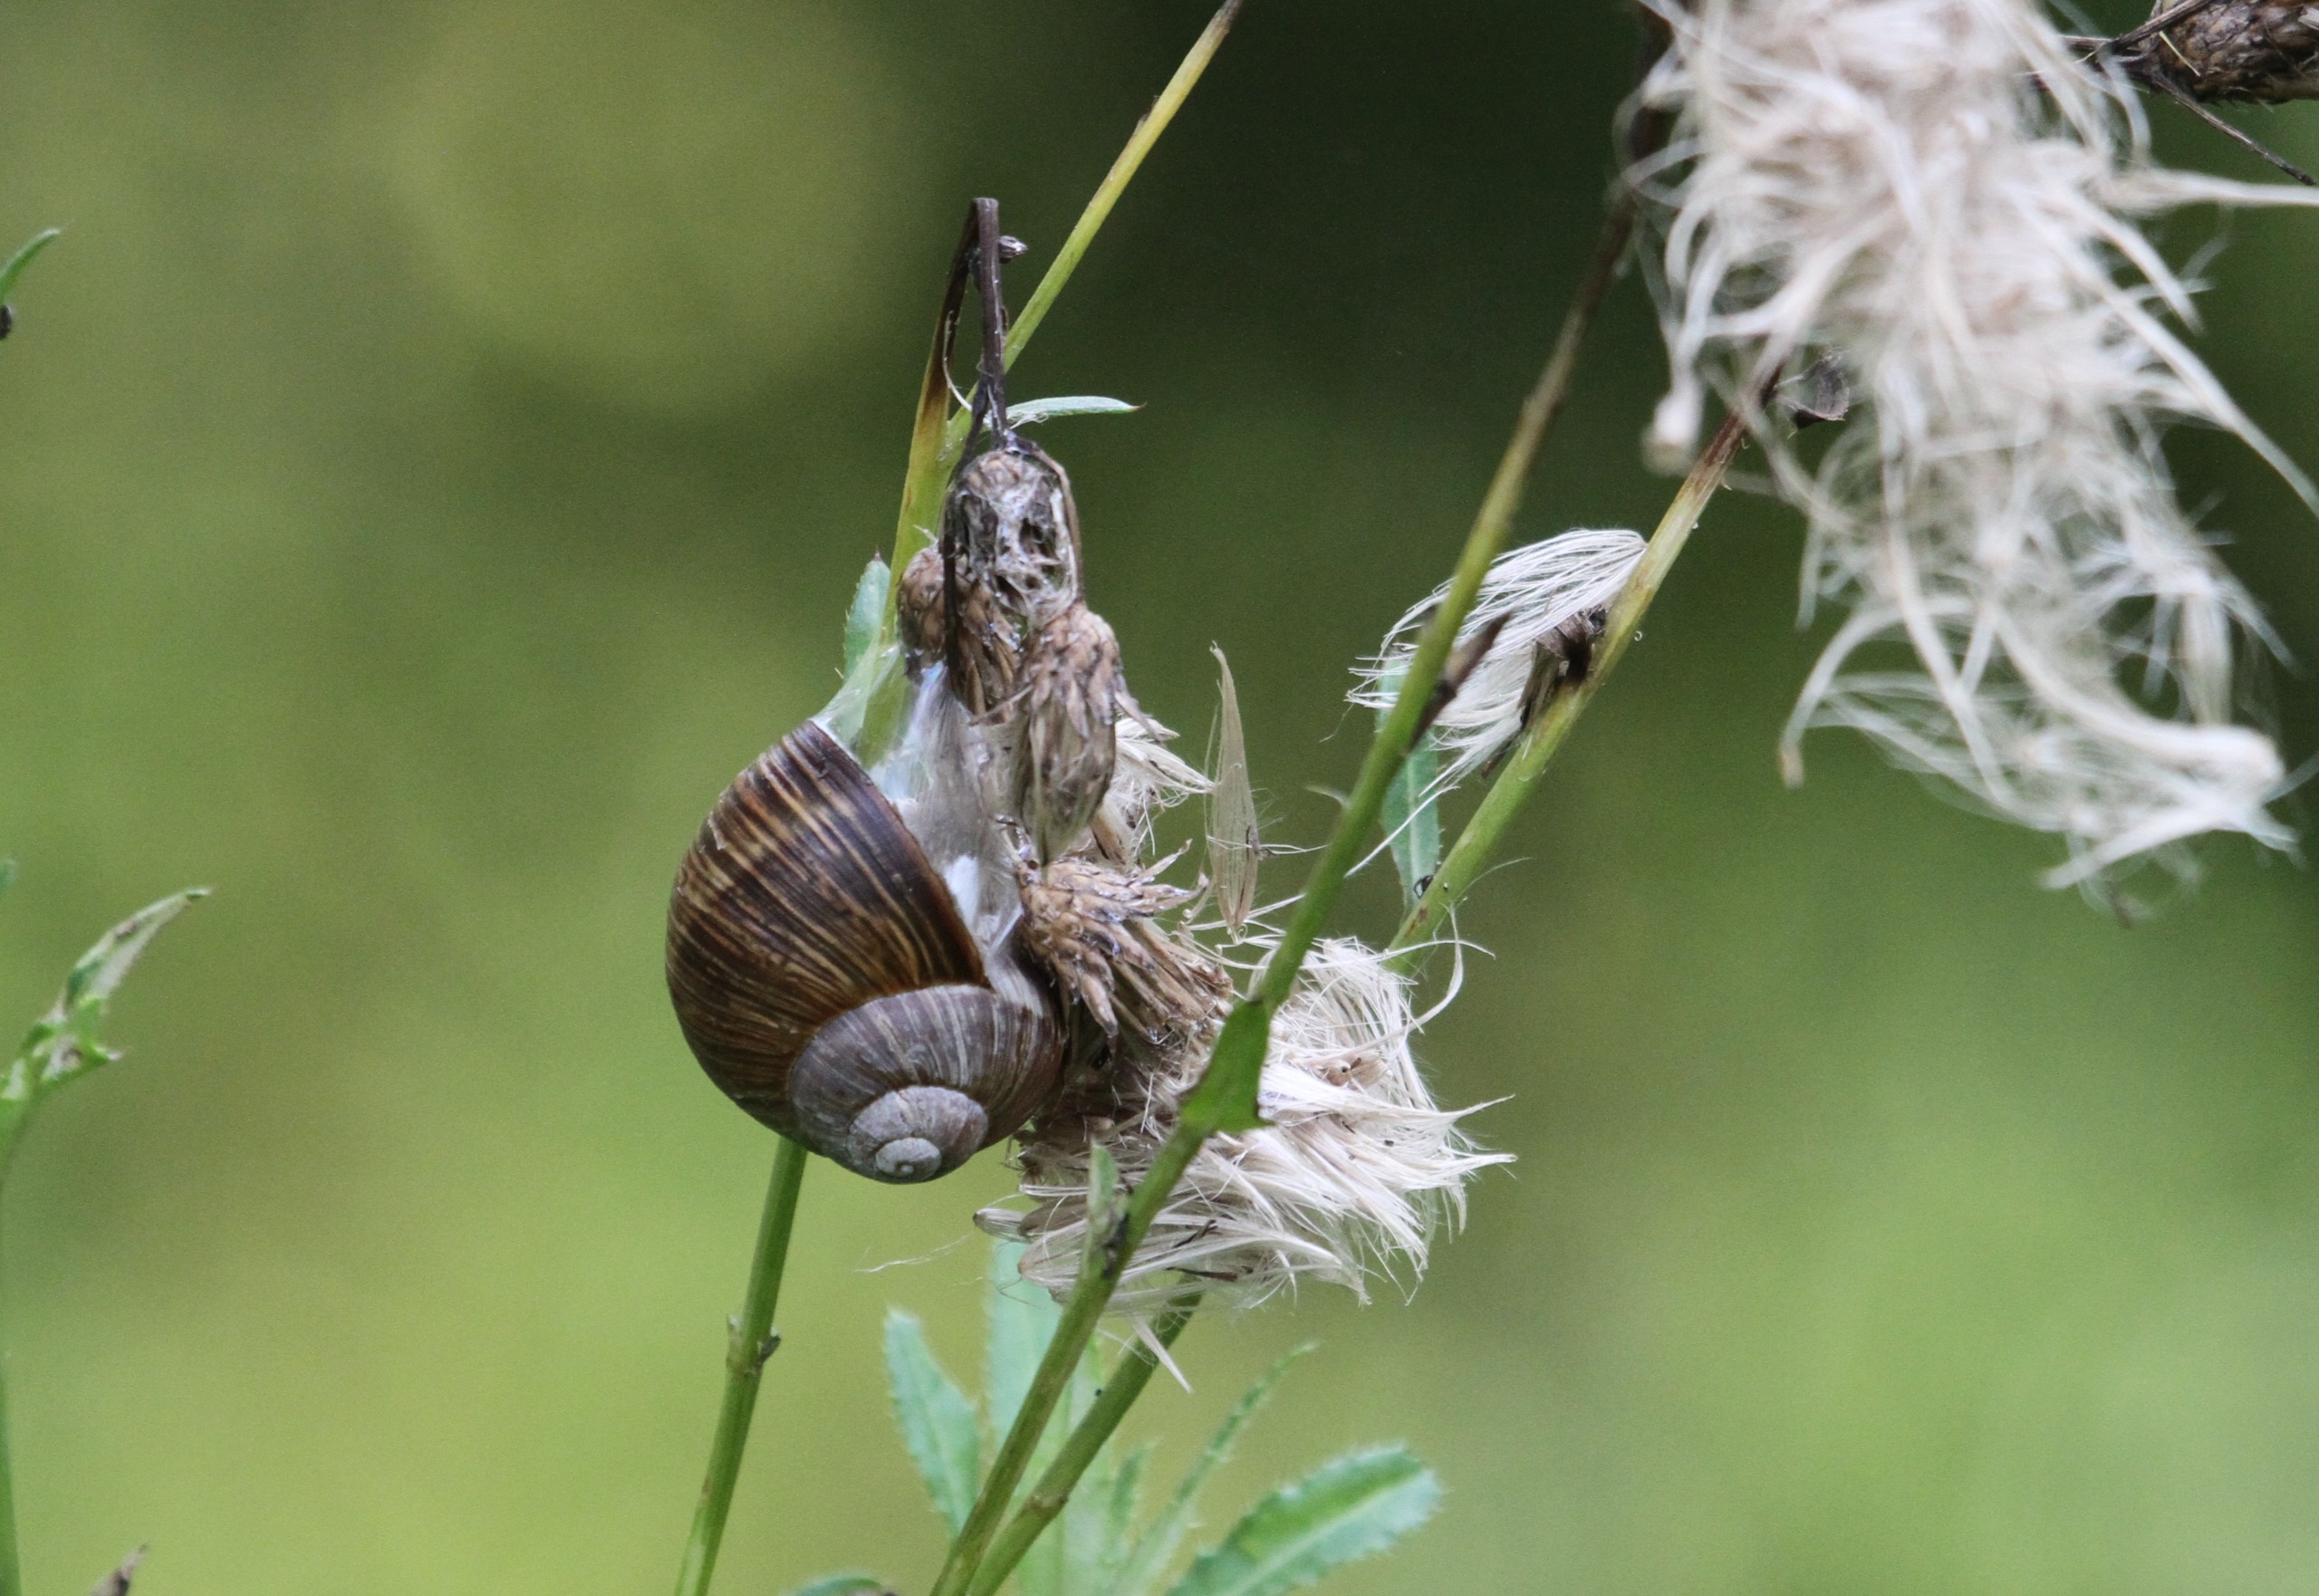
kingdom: Animalia
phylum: Mollusca
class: Gastropoda
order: Stylommatophora
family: Helicidae
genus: Helix
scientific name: Helix pomatia
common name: Vinbjergsnegl
